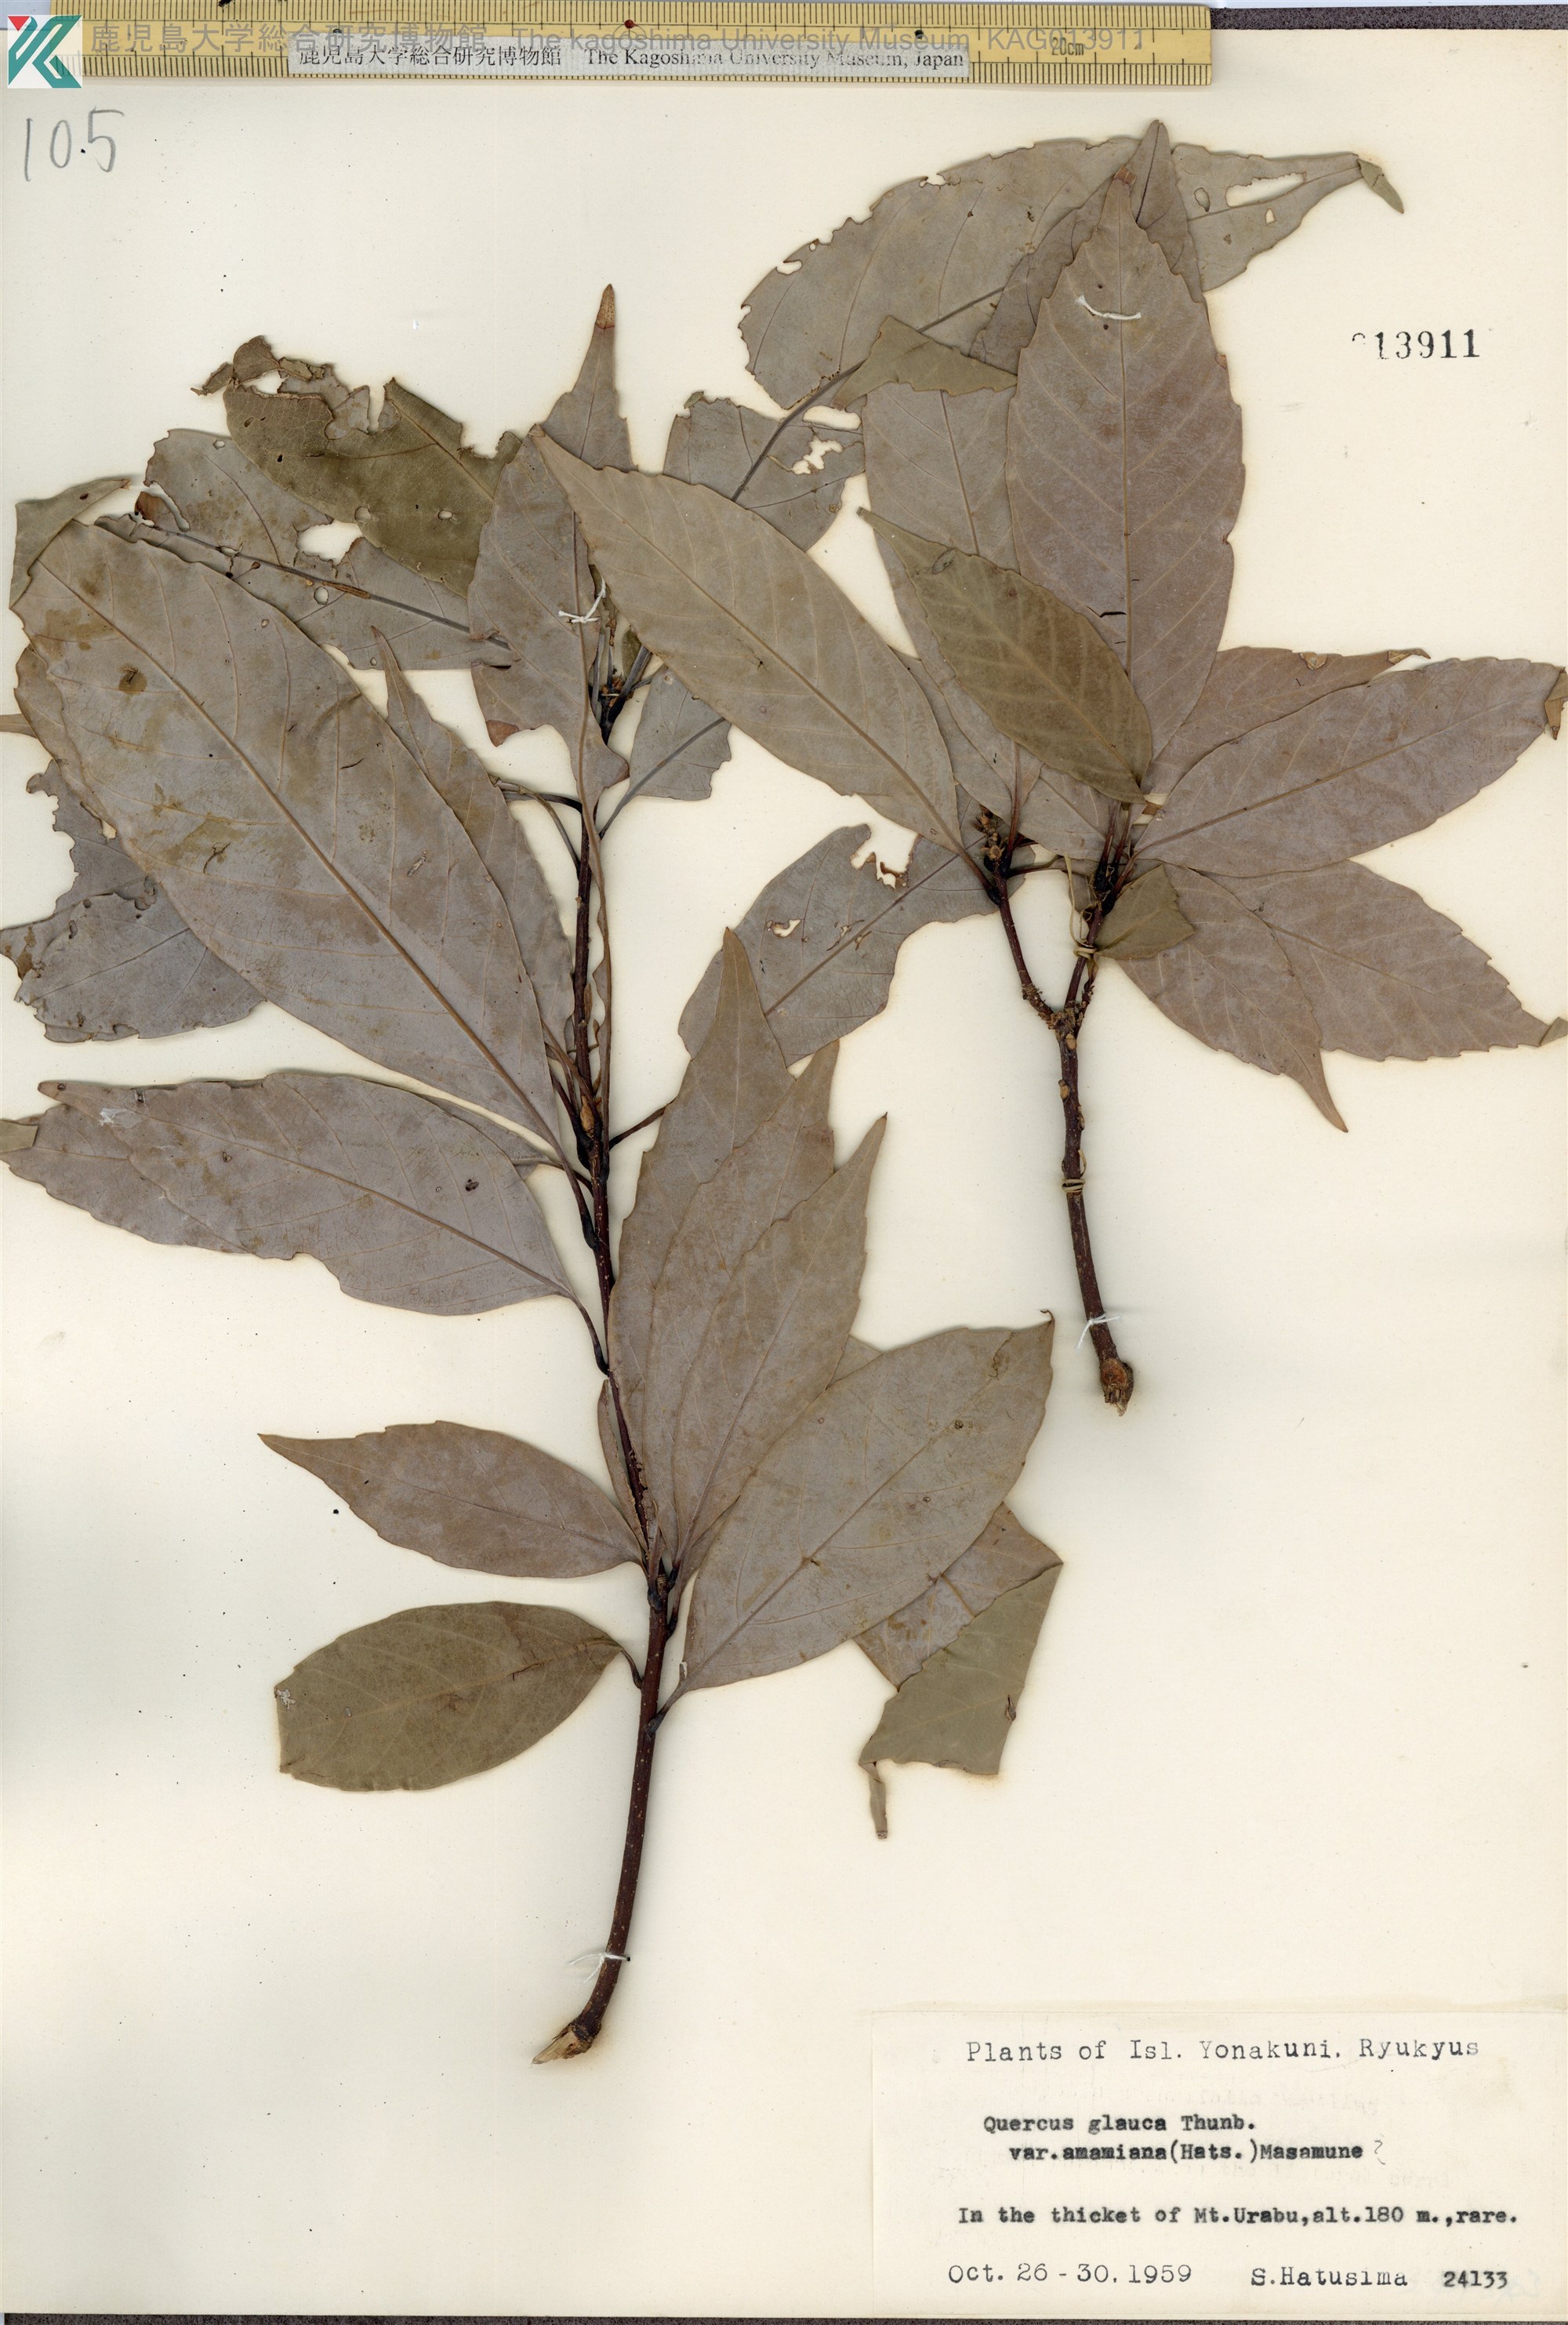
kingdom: Plantae
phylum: Tracheophyta
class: Magnoliopsida
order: Fagales
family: Fagaceae
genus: Quercus
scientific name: Quercus glauca
